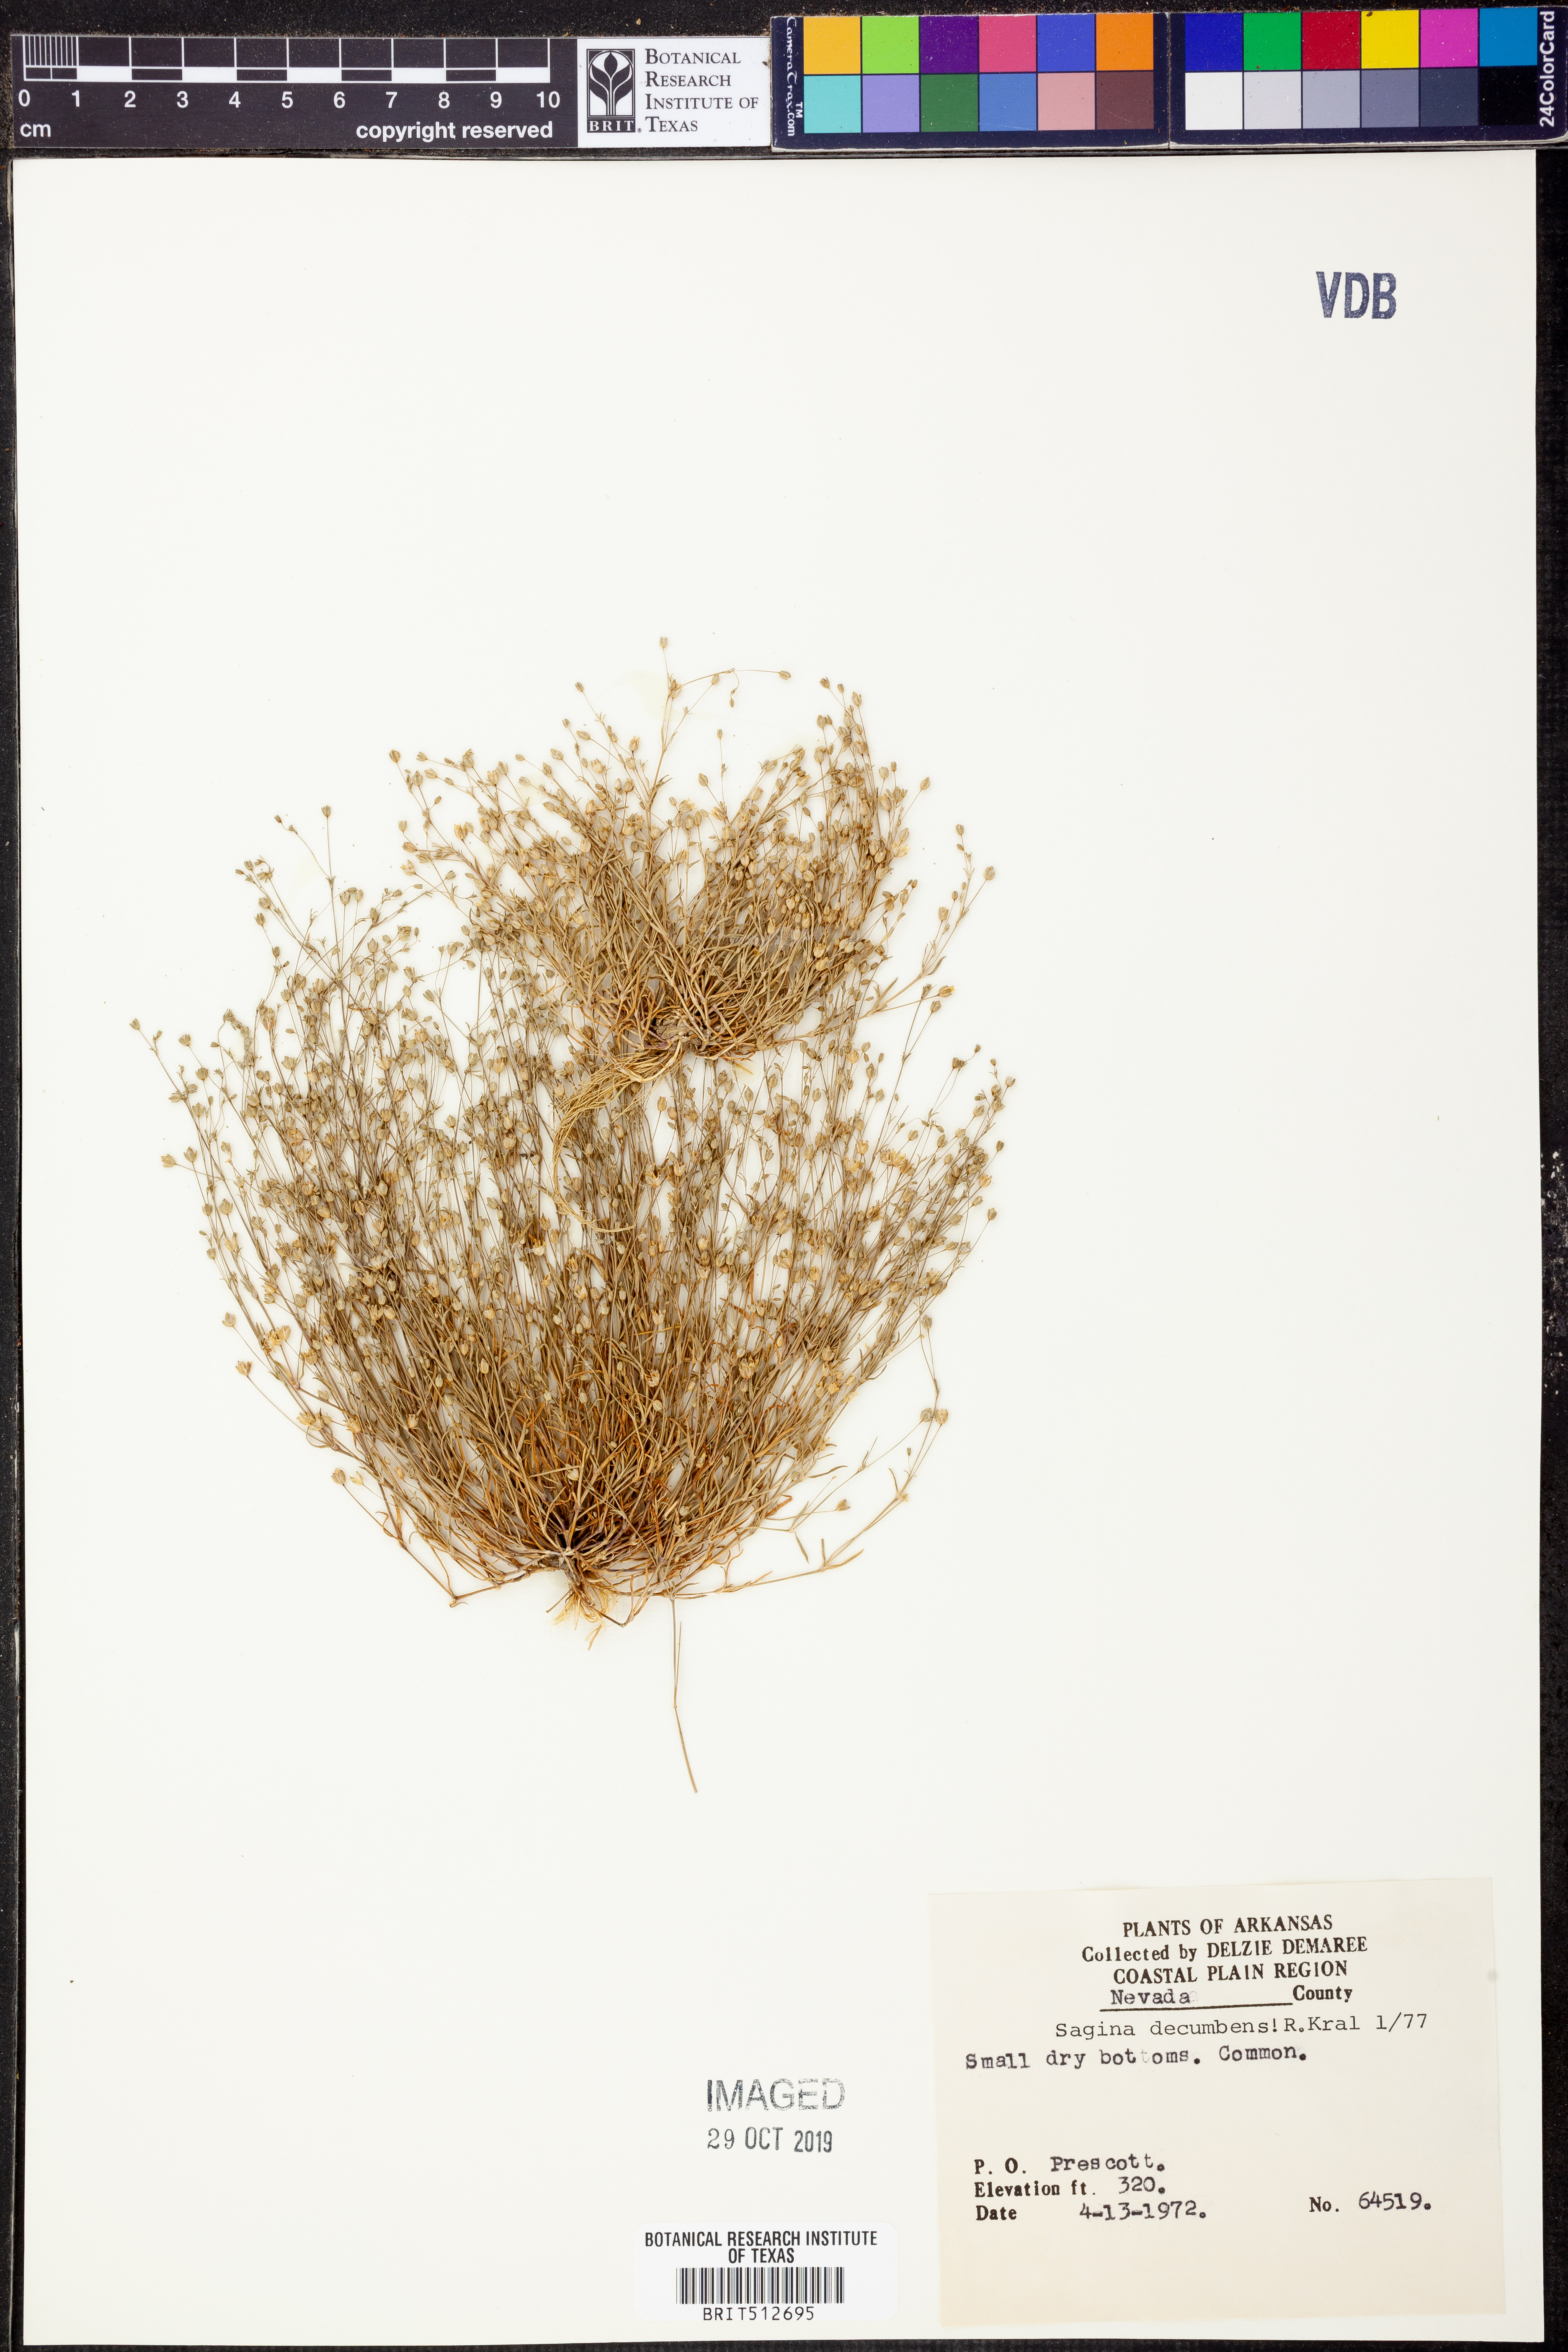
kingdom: Plantae
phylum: Tracheophyta
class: Magnoliopsida
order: Caryophyllales
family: Caryophyllaceae
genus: Sagina
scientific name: Sagina decumbens
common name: Decumbent pearlwort
